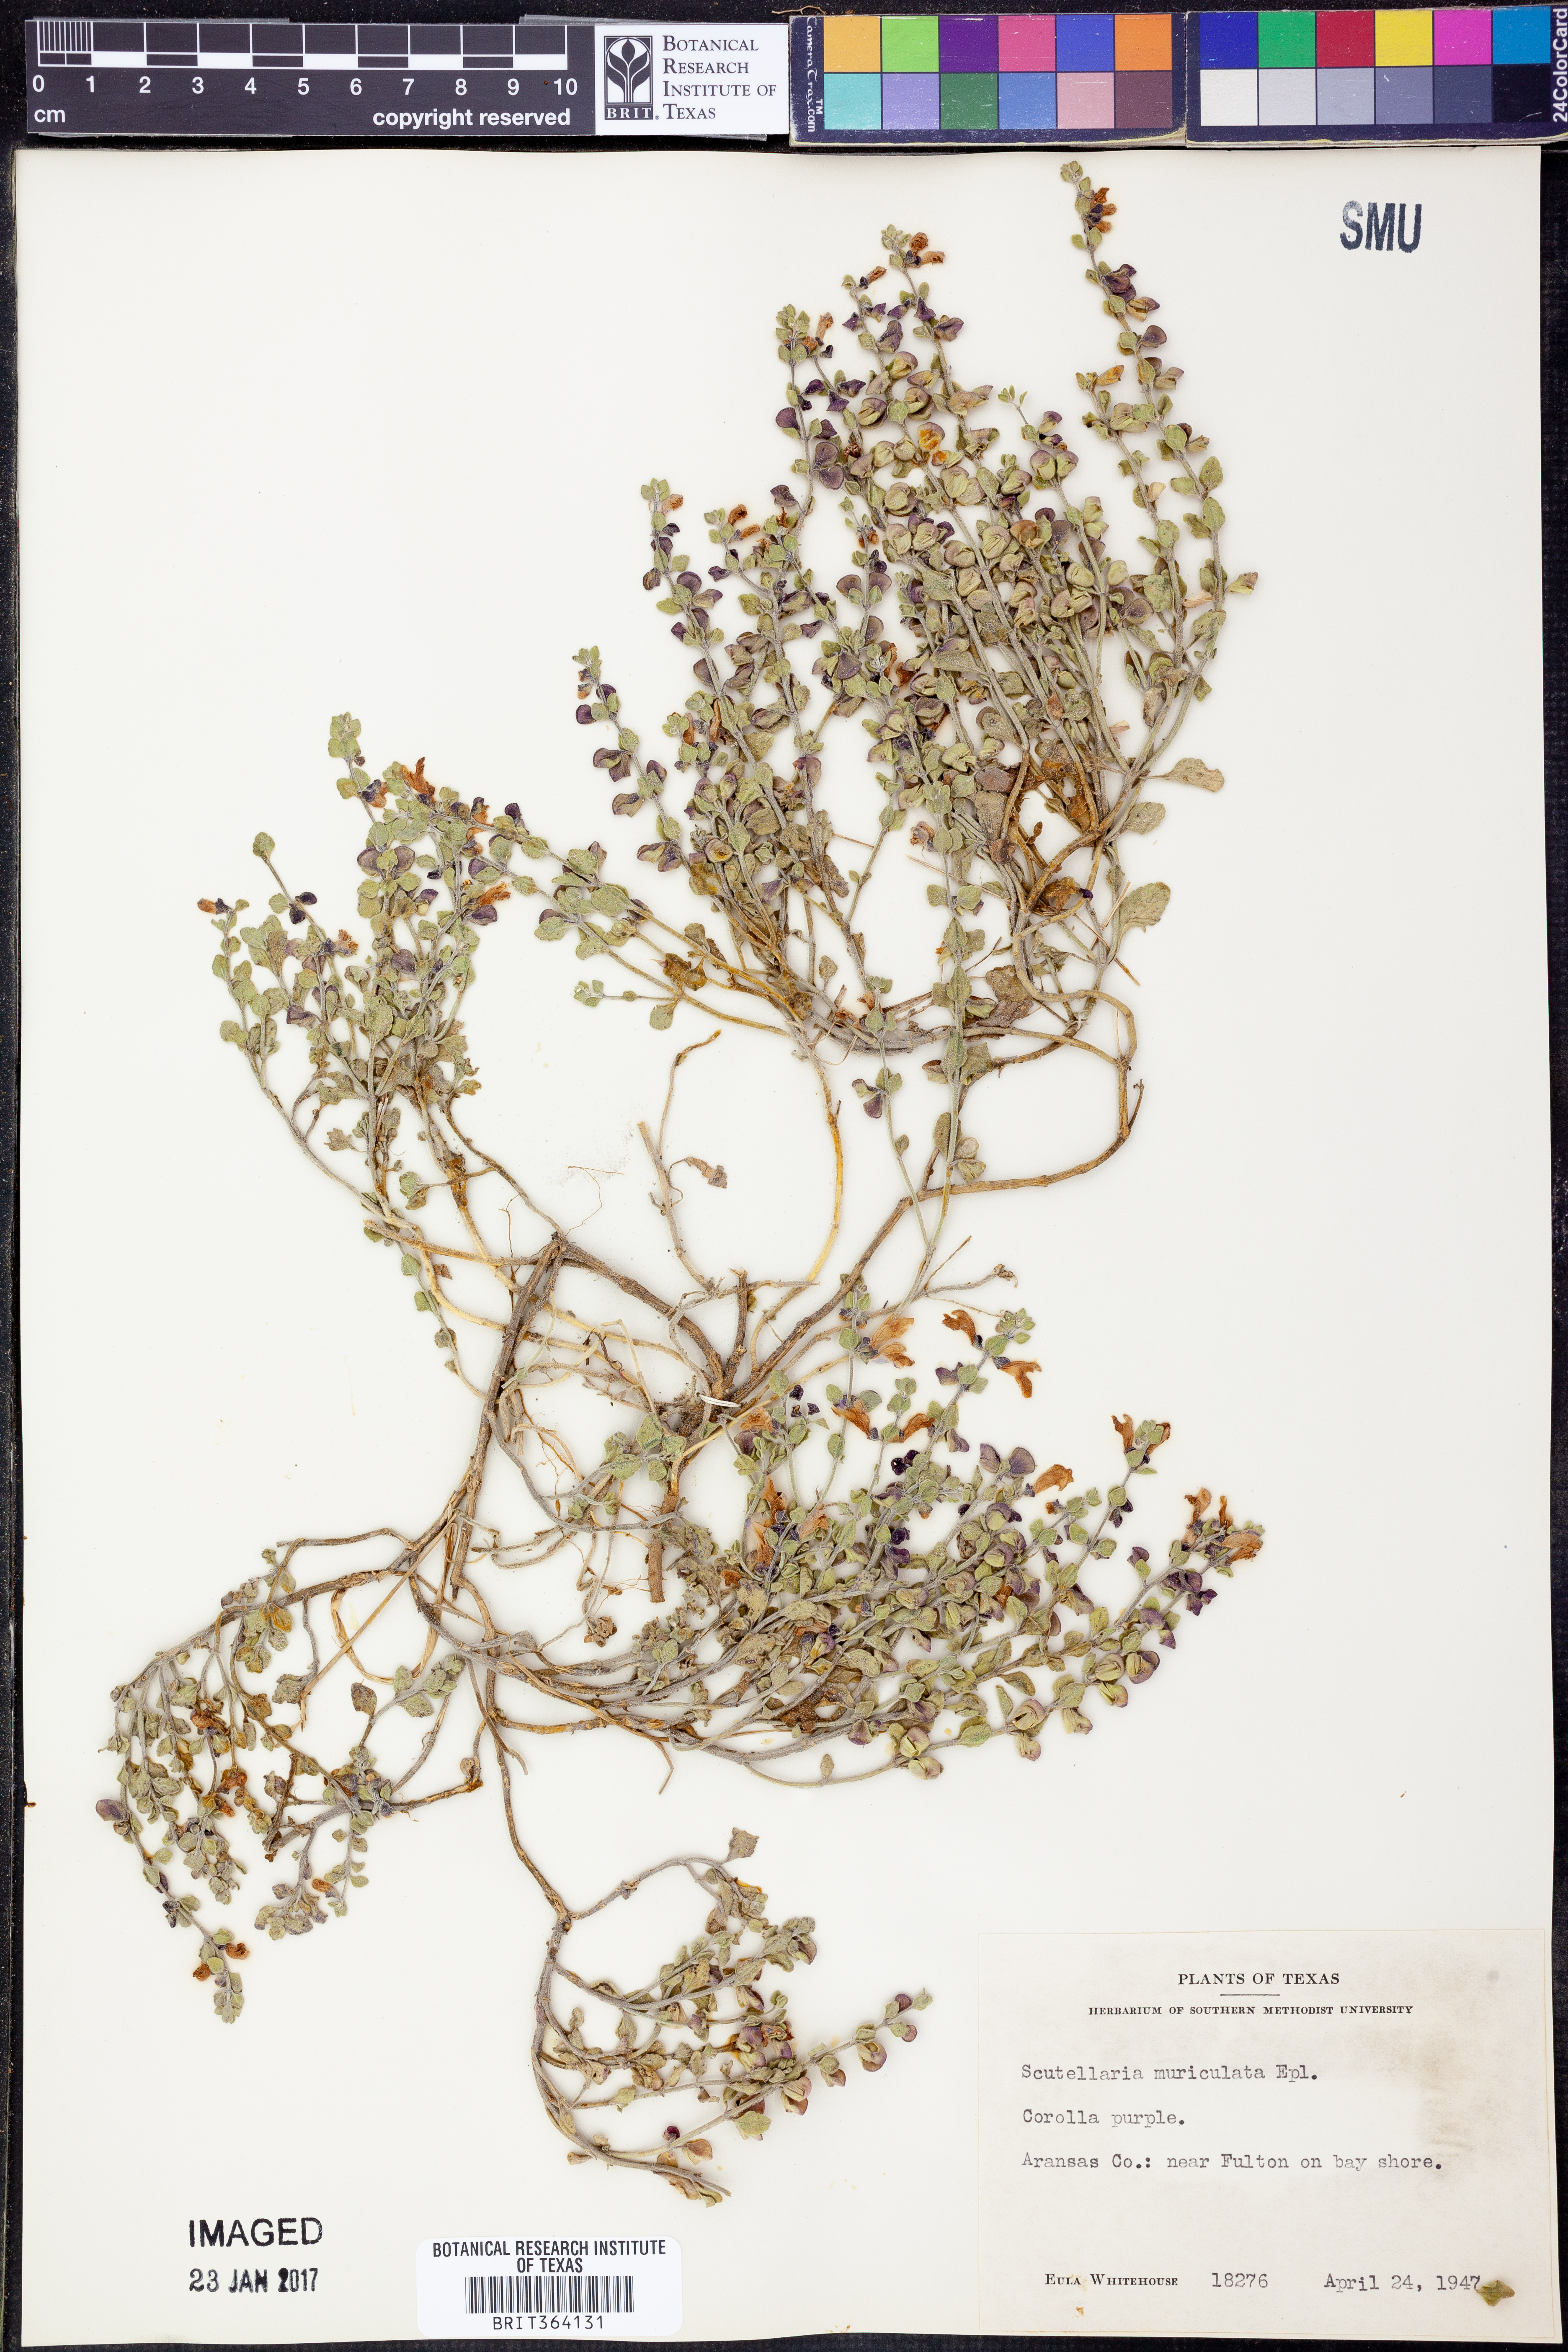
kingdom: Plantae
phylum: Tracheophyta
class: Magnoliopsida
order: Lamiales
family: Lamiaceae
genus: Scutellaria
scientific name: Scutellaria muriculata
